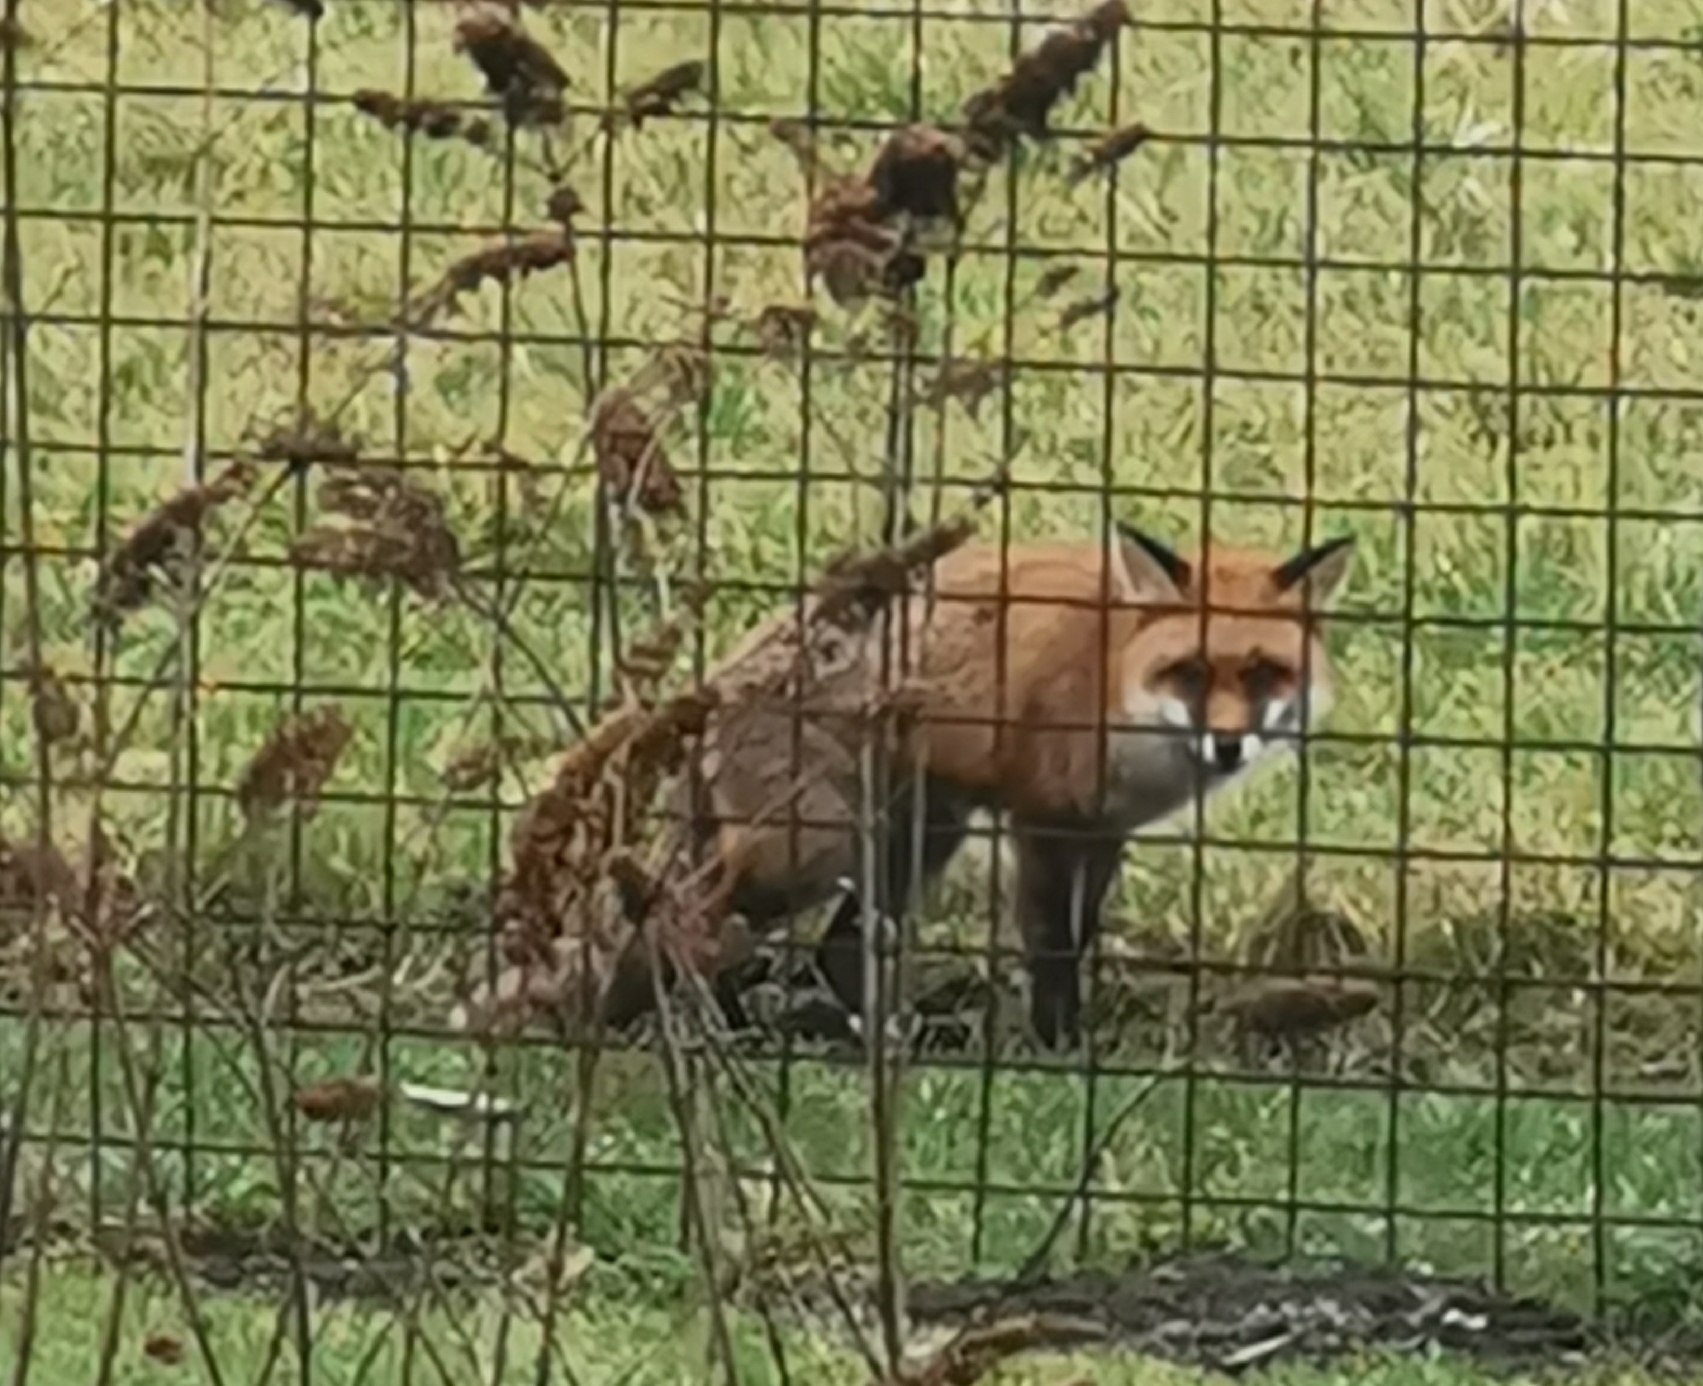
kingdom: Animalia
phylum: Chordata
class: Mammalia
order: Carnivora
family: Canidae
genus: Vulpes
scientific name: Vulpes vulpes
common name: Ræv
